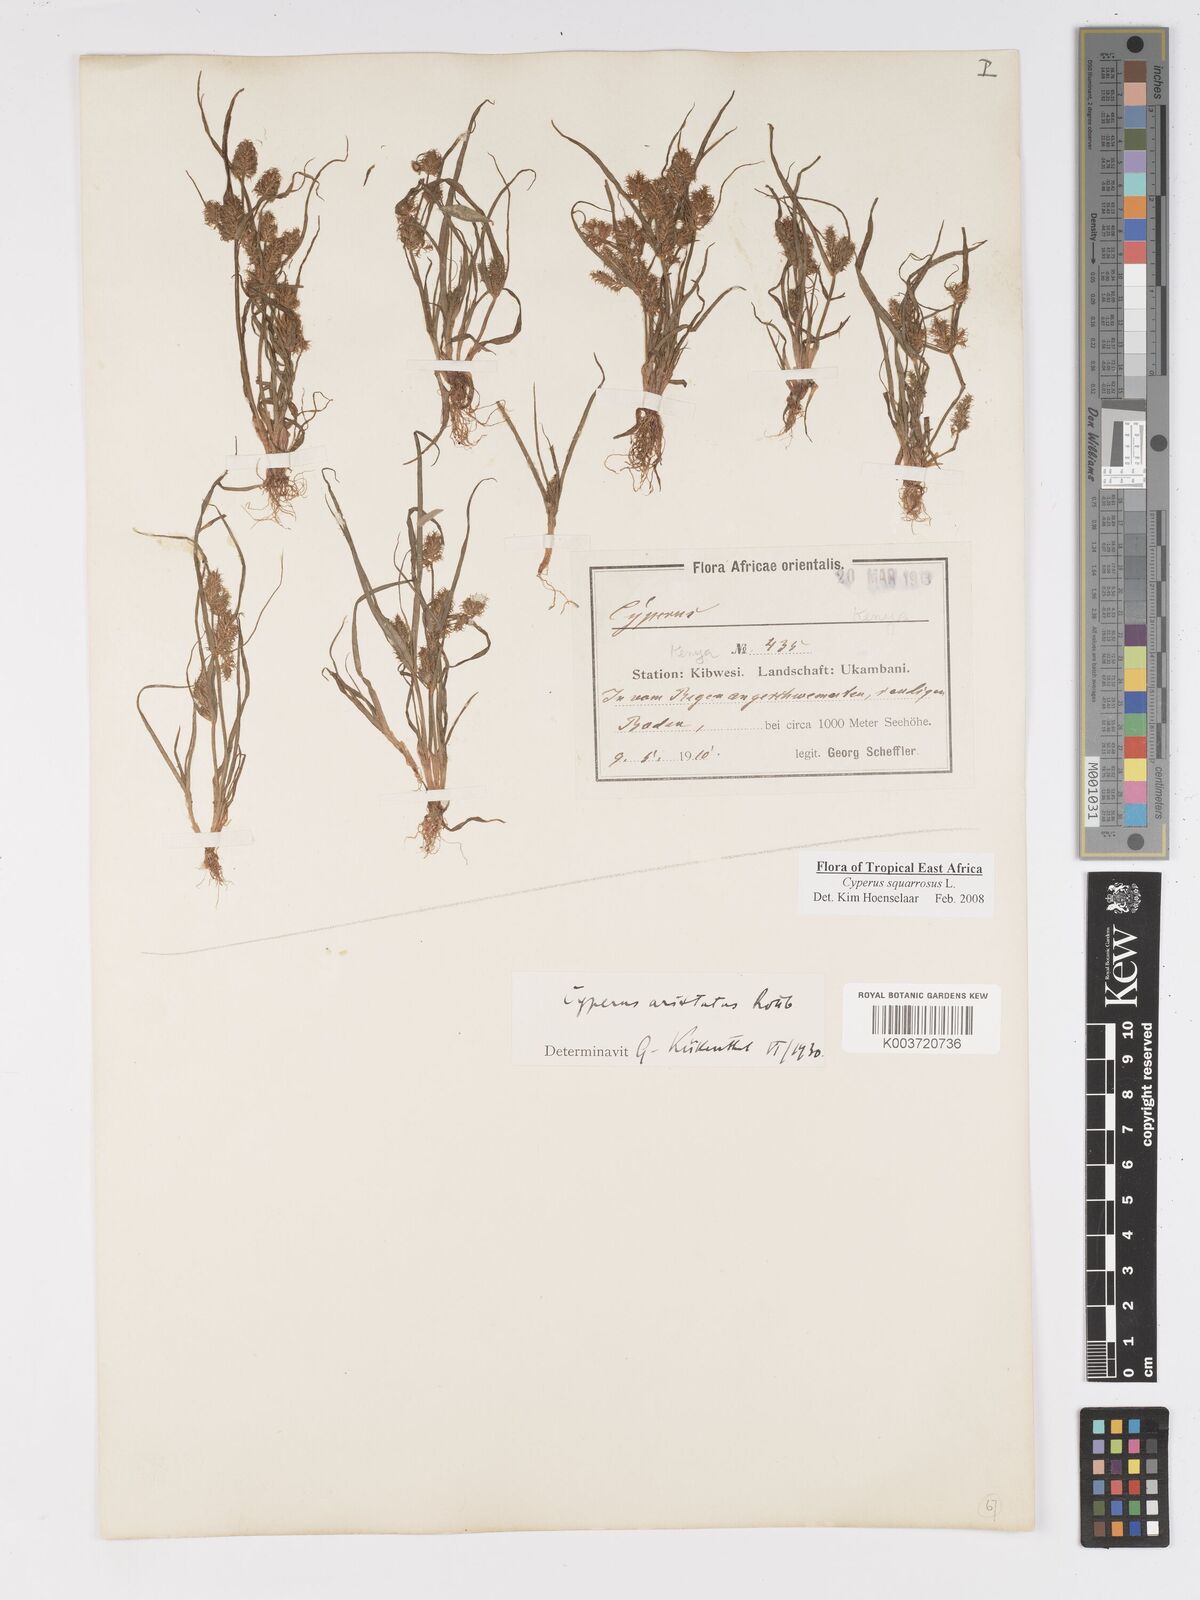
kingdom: Plantae
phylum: Tracheophyta
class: Liliopsida
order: Poales
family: Cyperaceae
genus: Cyperus
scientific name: Cyperus squarrosus
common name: Awned cyperus
